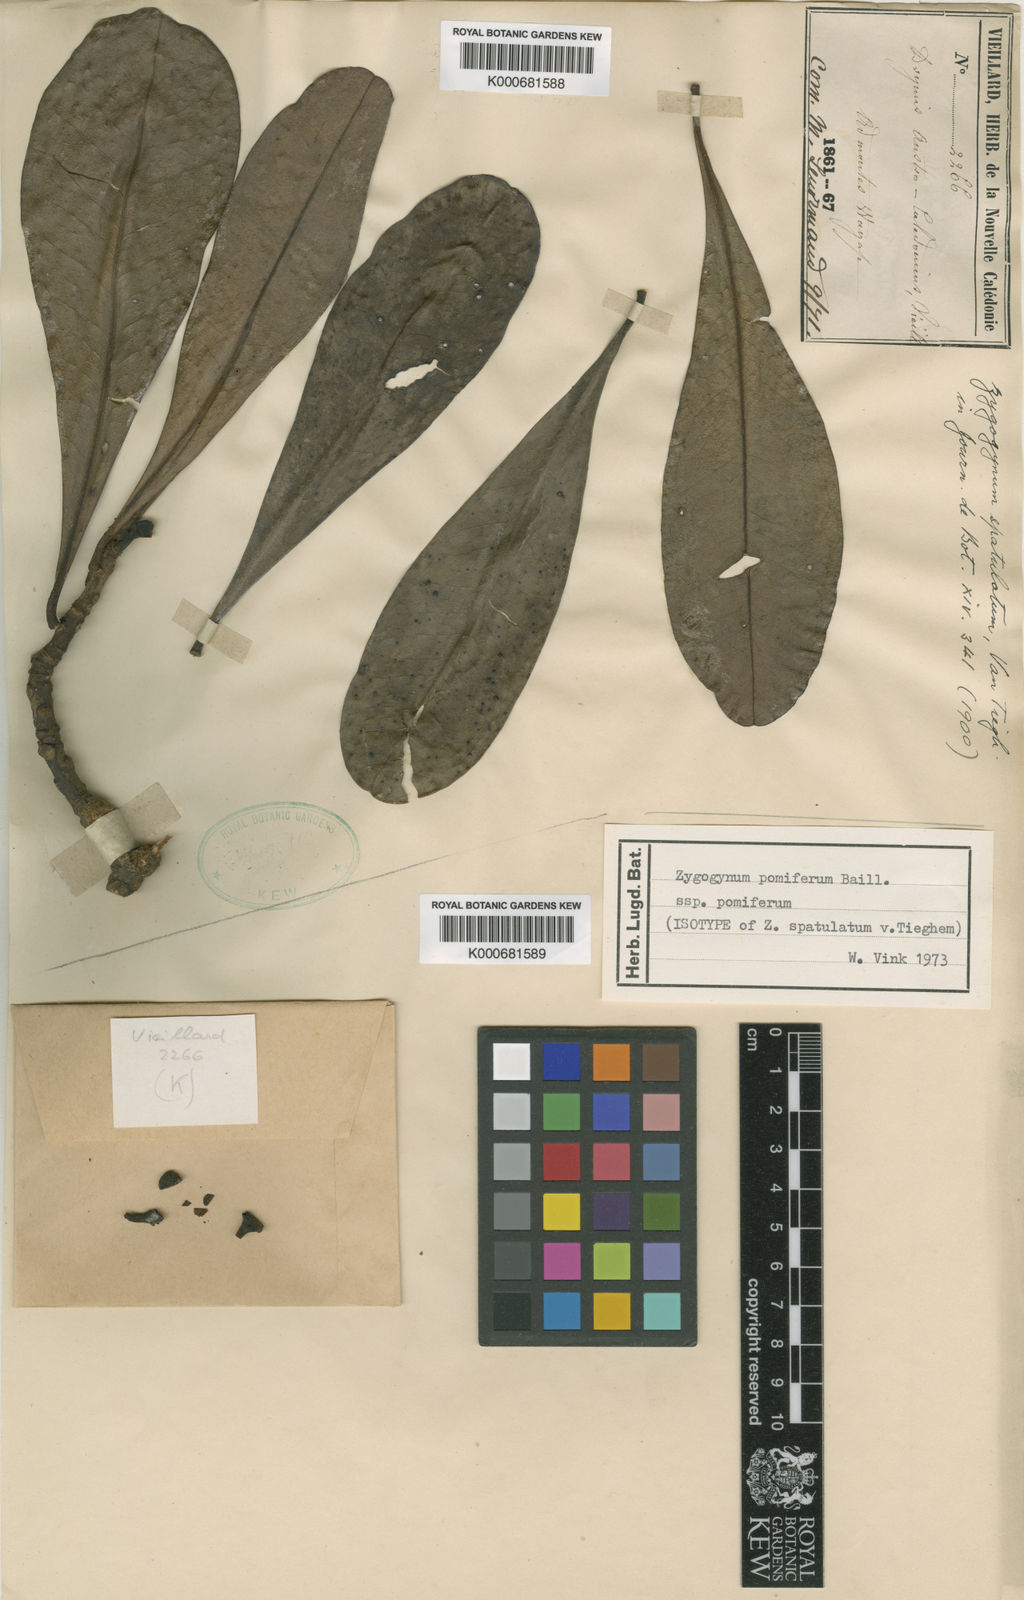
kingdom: Plantae
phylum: Tracheophyta
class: Magnoliopsida
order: Canellales
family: Winteraceae
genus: Zygogynum
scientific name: Zygogynum
